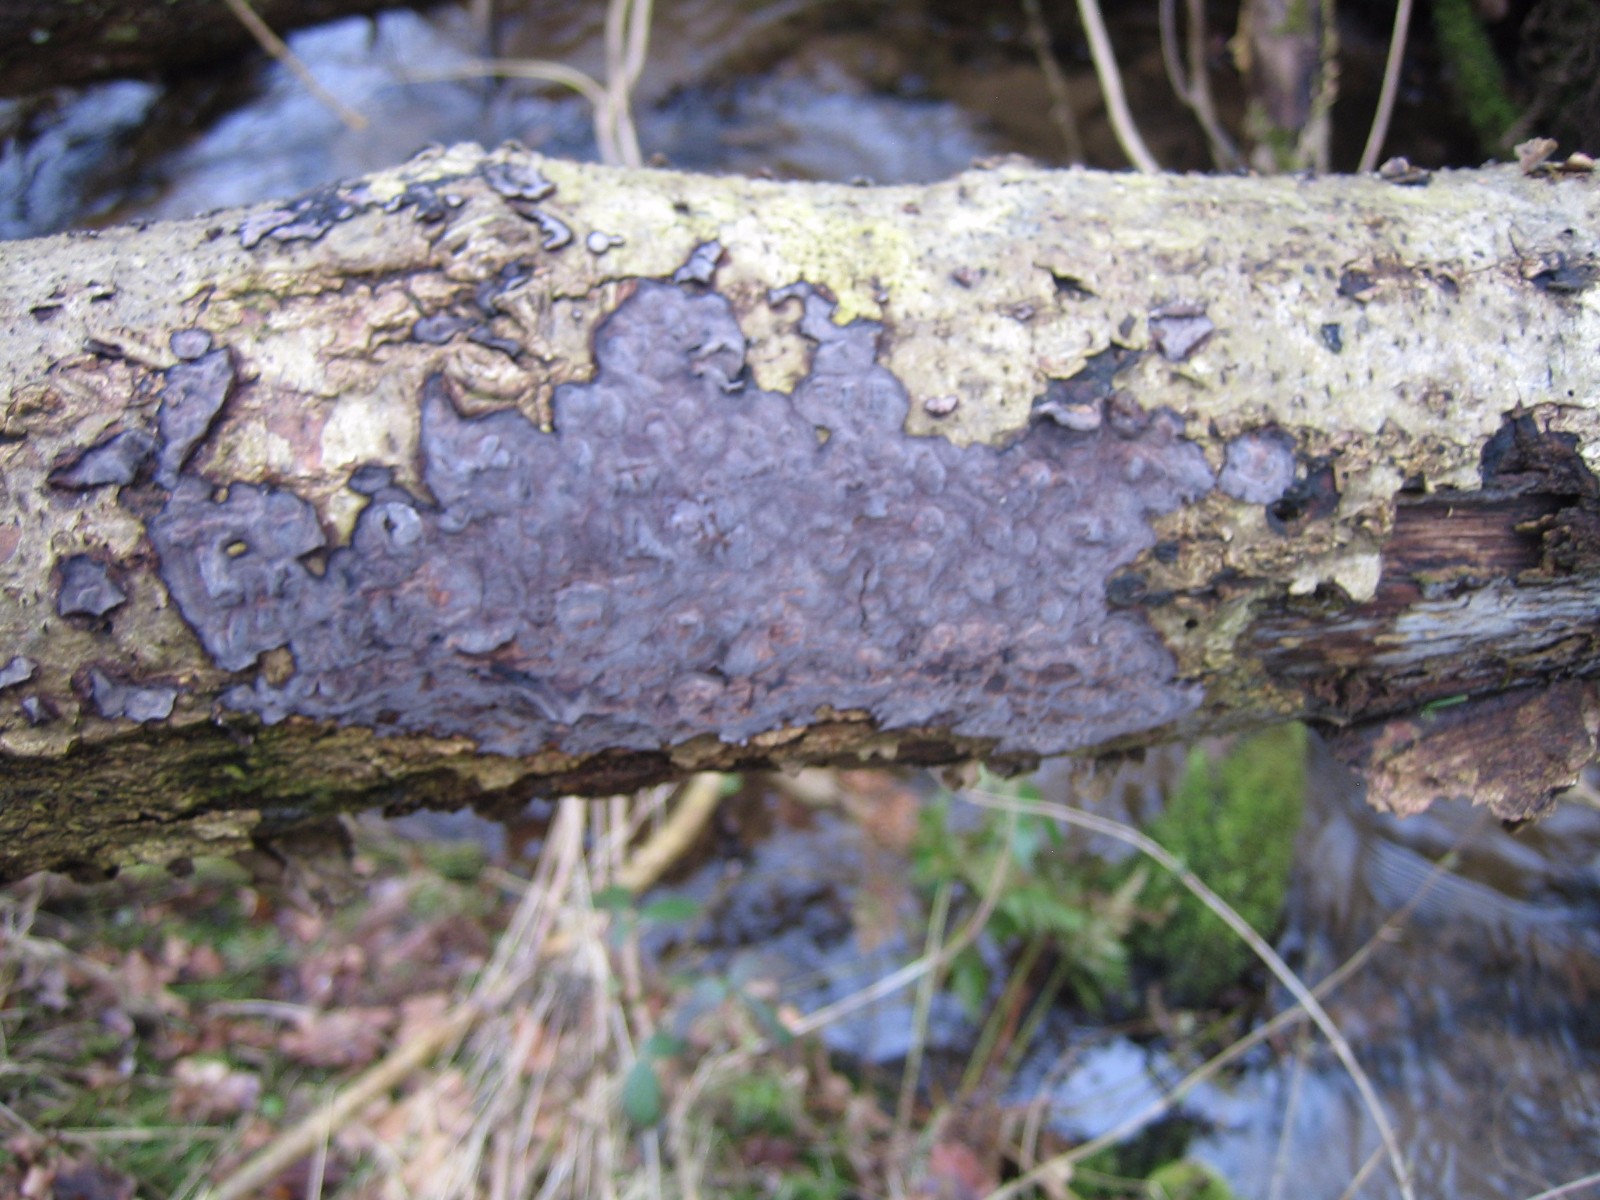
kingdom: Fungi
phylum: Basidiomycota
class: Agaricomycetes
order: Russulales
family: Peniophoraceae
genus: Peniophora
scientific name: Peniophora quercina
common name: ege-voksskind
